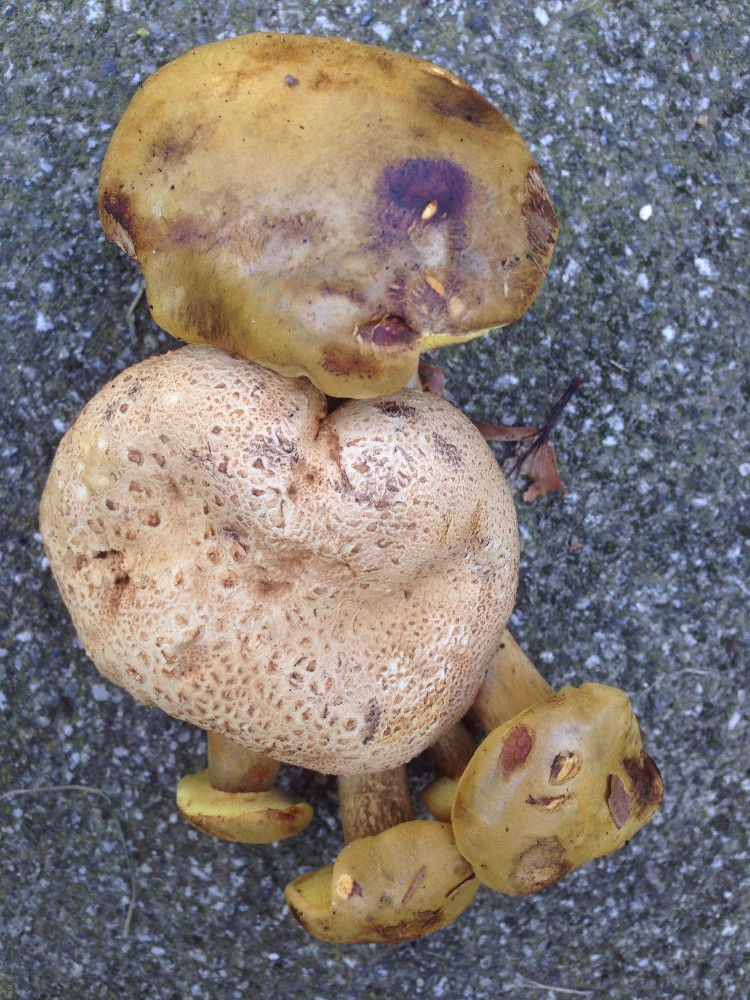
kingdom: Fungi
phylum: Basidiomycota
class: Agaricomycetes
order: Boletales
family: Boletaceae
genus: Pseudoboletus
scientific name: Pseudoboletus parasiticus
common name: snyltende rørhat
